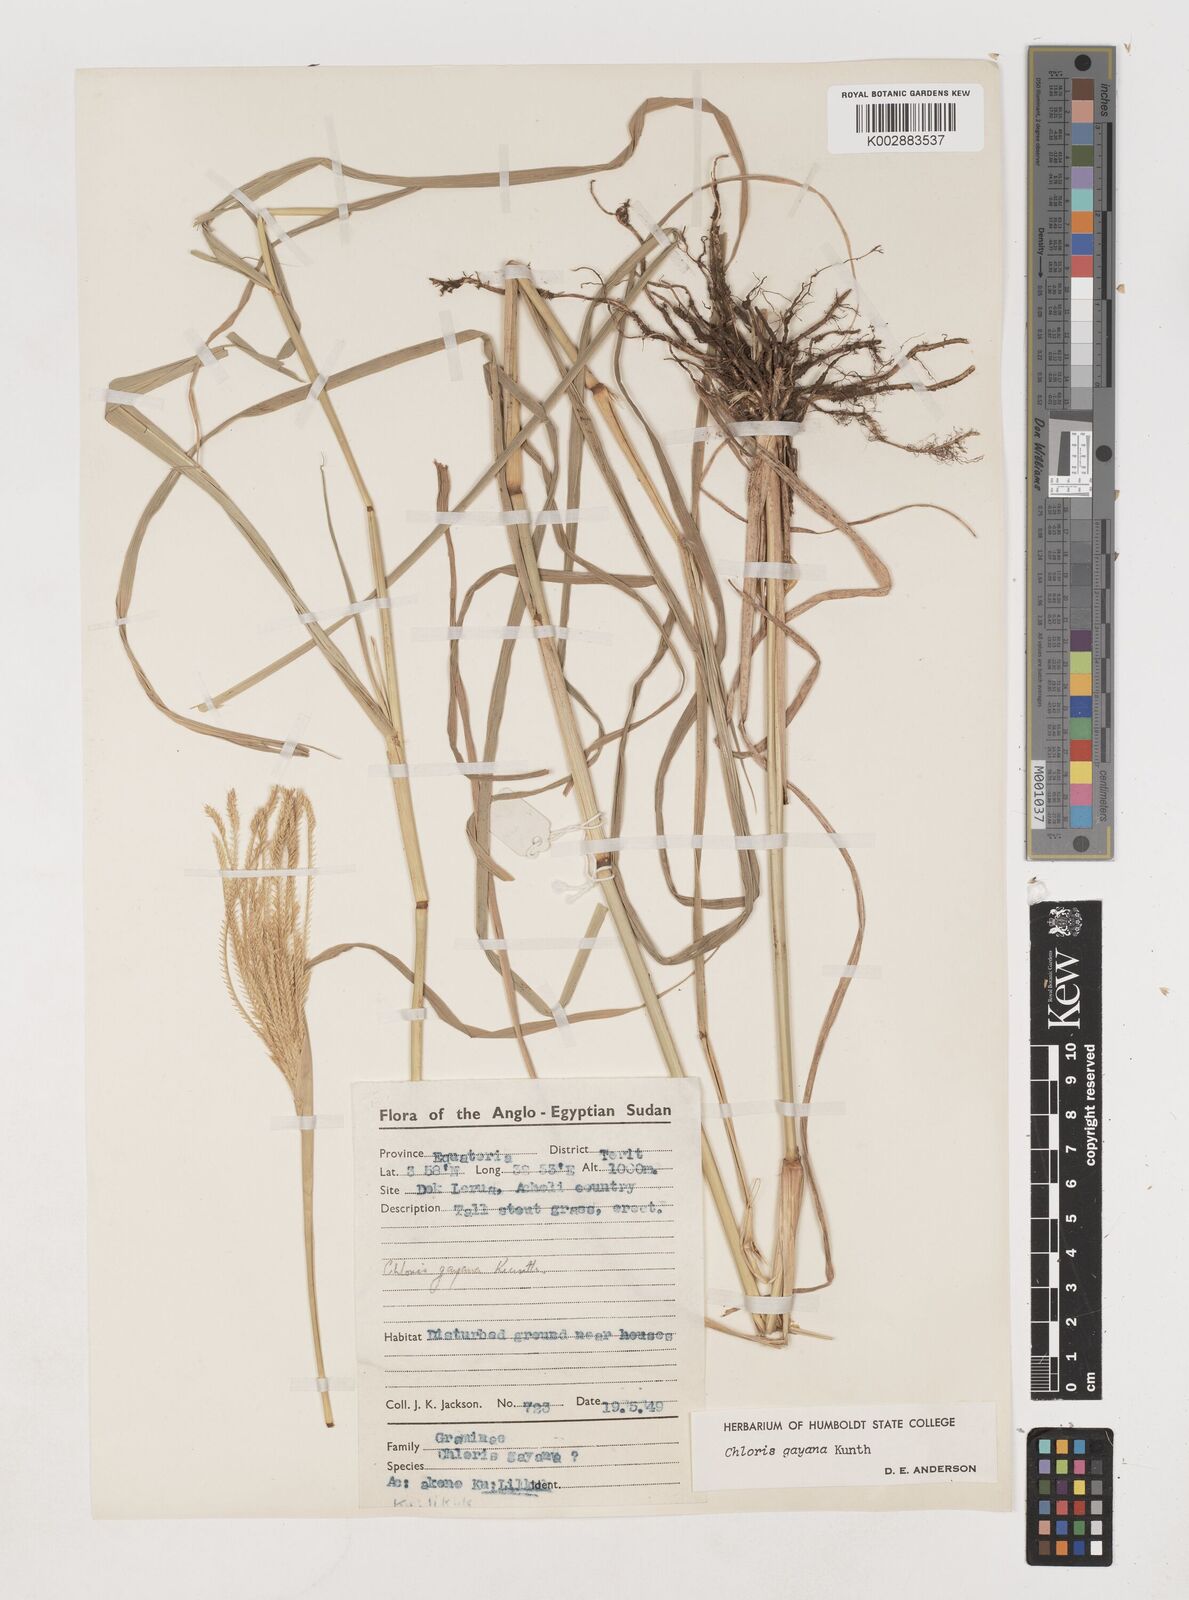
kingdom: Plantae
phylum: Tracheophyta
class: Liliopsida
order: Poales
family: Poaceae
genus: Chloris
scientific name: Chloris gayana
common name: Rhodes grass
